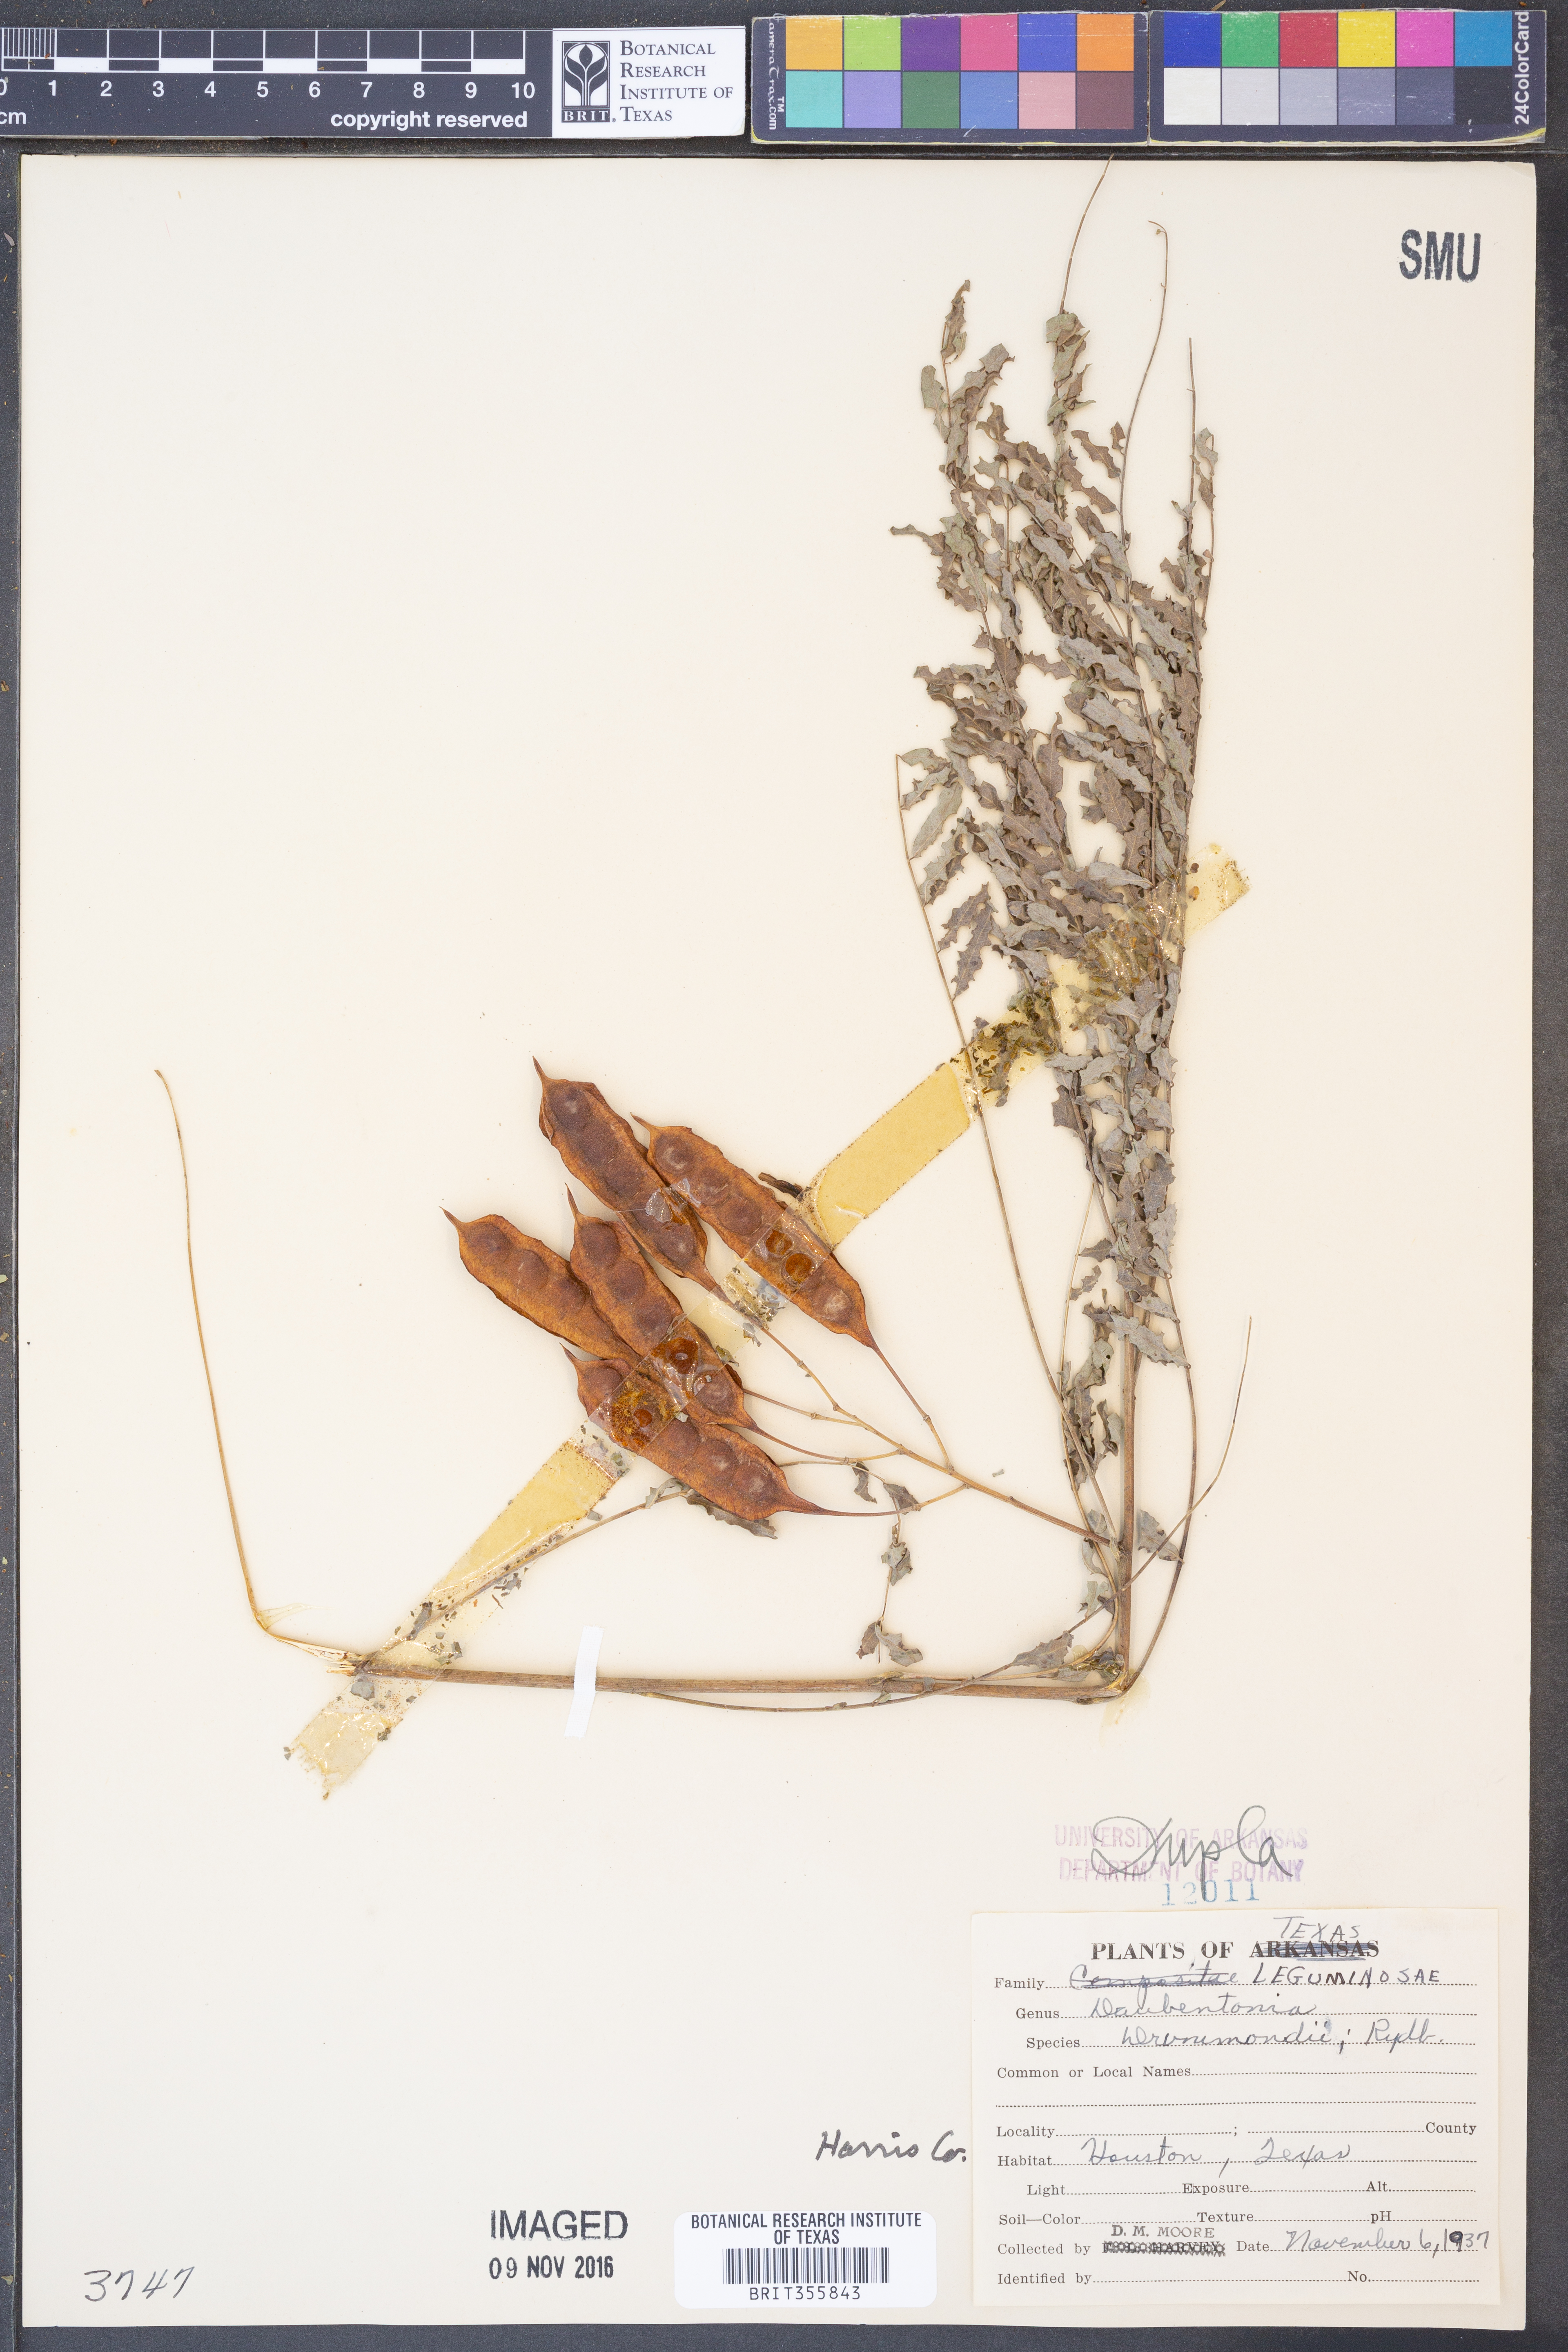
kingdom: Plantae
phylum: Tracheophyta
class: Magnoliopsida
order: Fabales
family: Fabaceae
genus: Sesbania
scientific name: Sesbania drummondii
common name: Poison-bean
